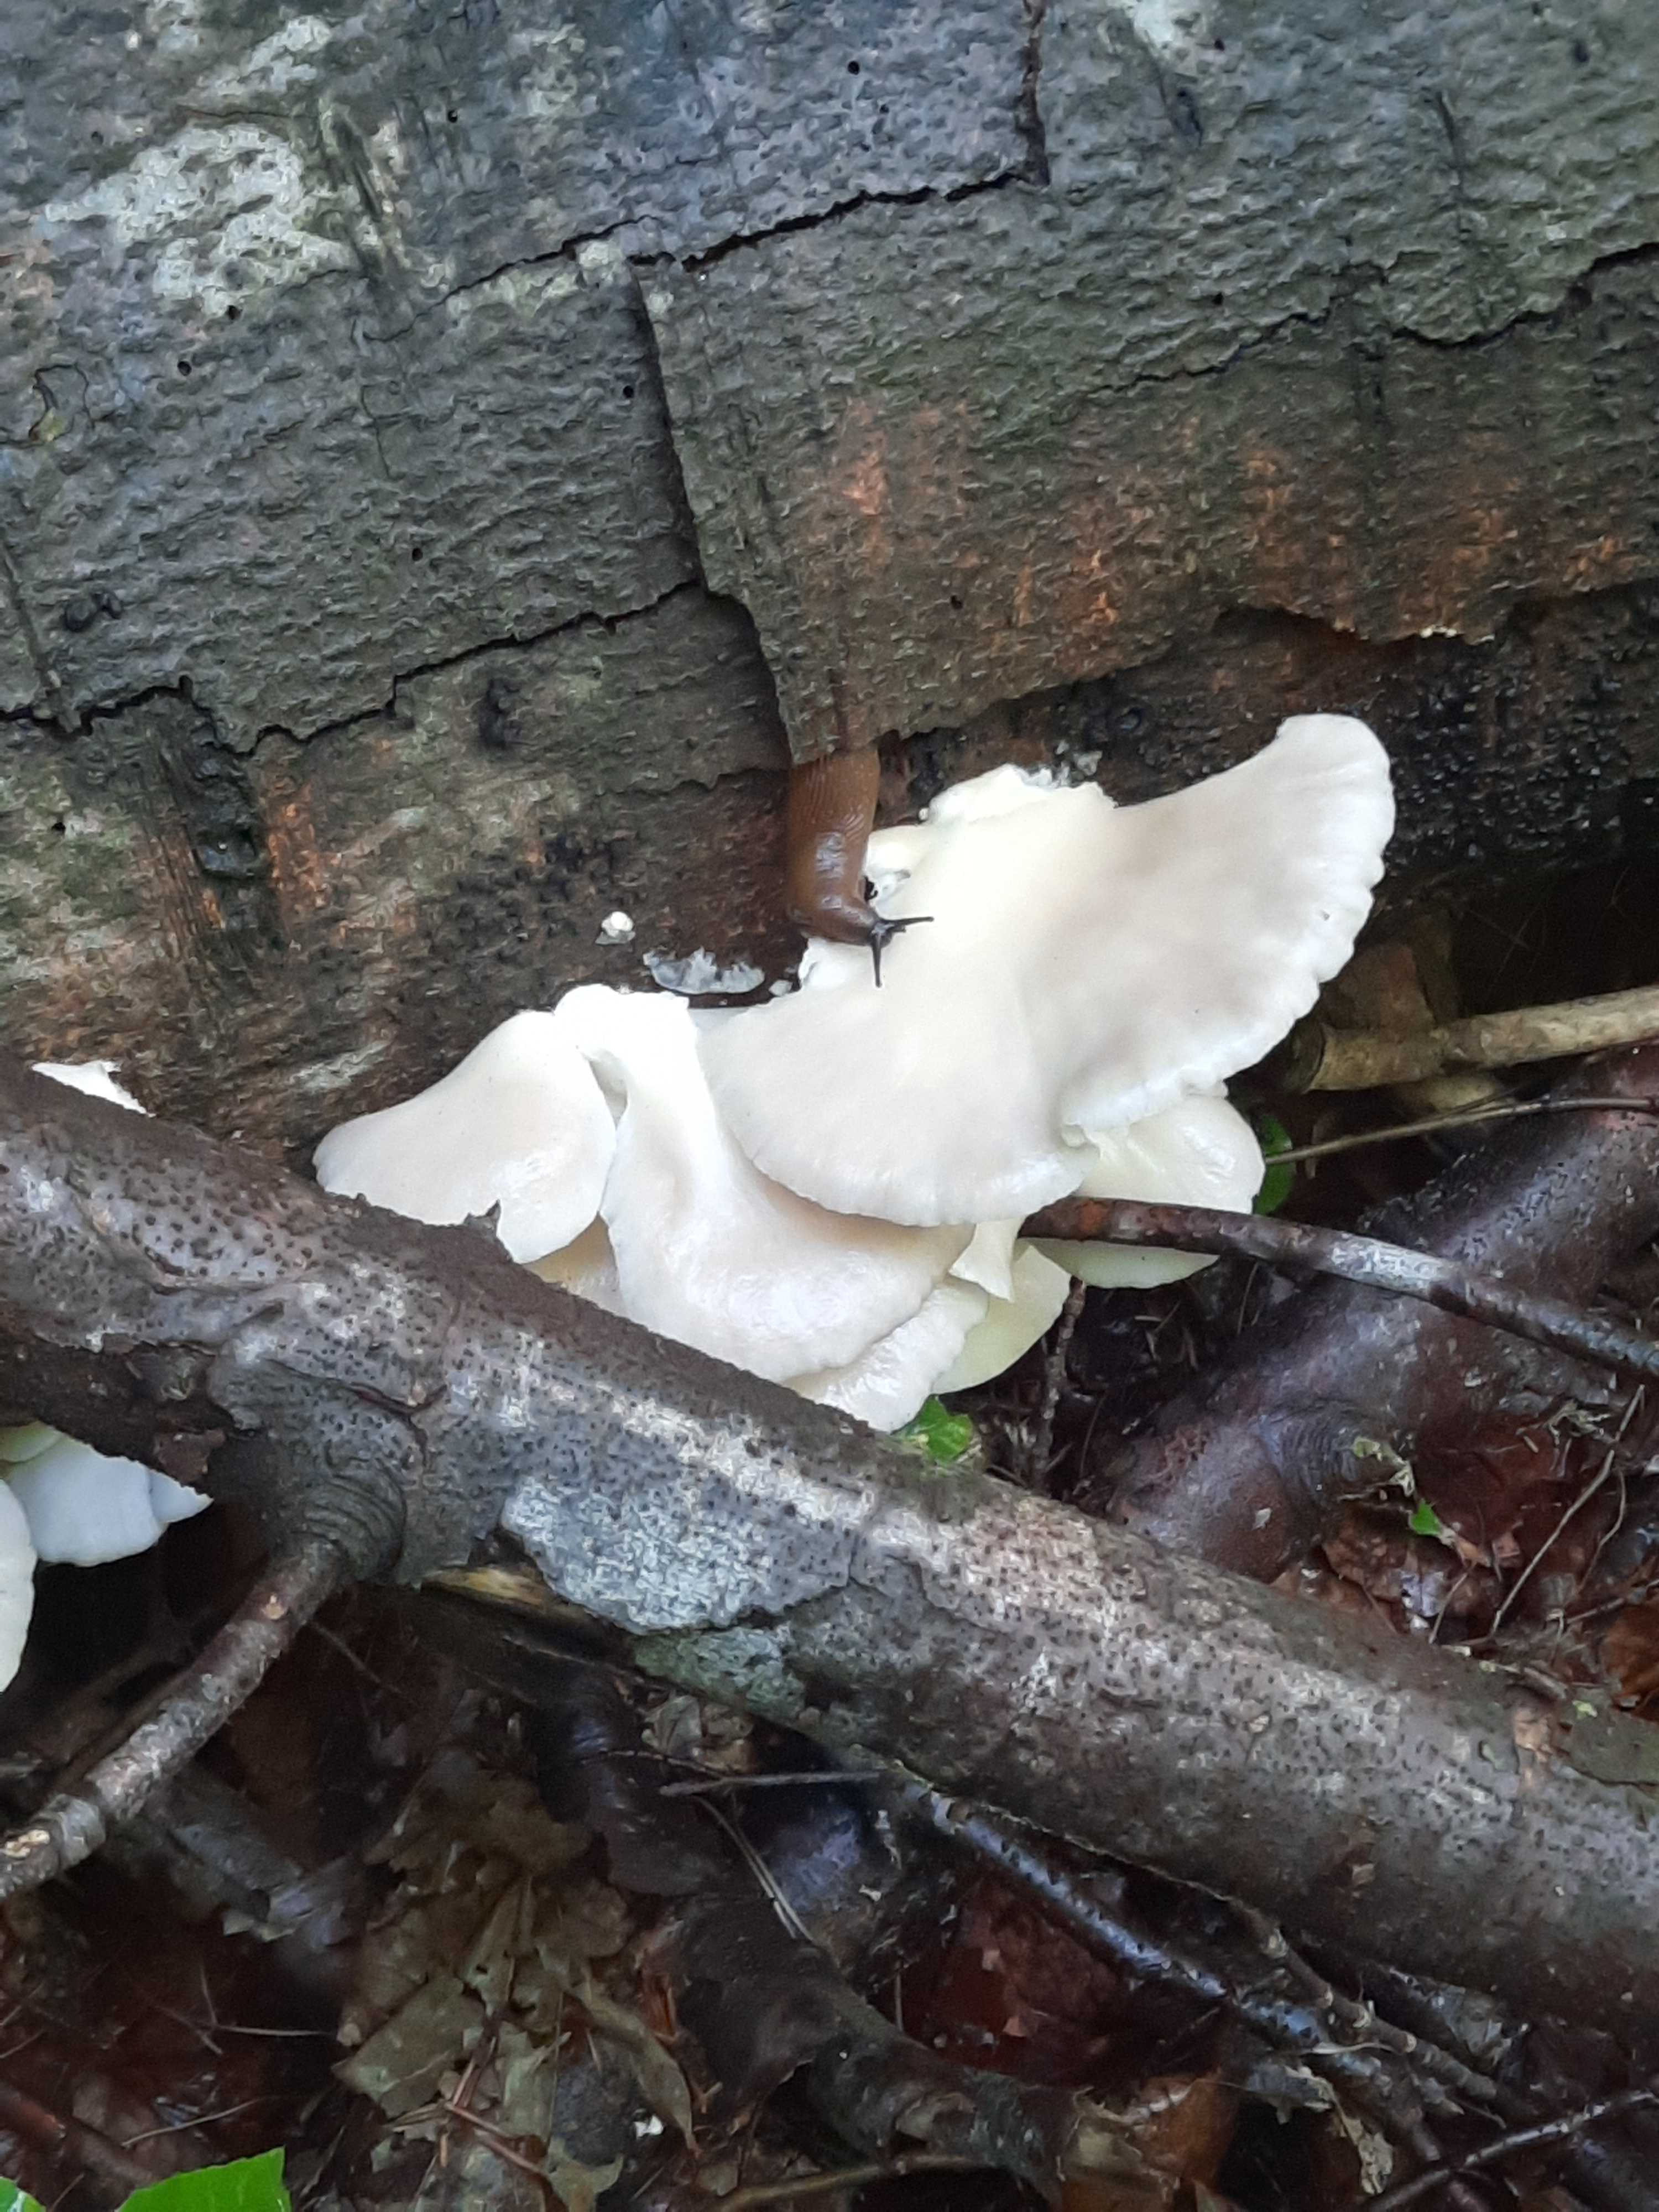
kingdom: Fungi
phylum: Basidiomycota
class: Agaricomycetes
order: Agaricales
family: Pleurotaceae
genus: Pleurotus
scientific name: Pleurotus pulmonarius
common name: sommer-østershat
